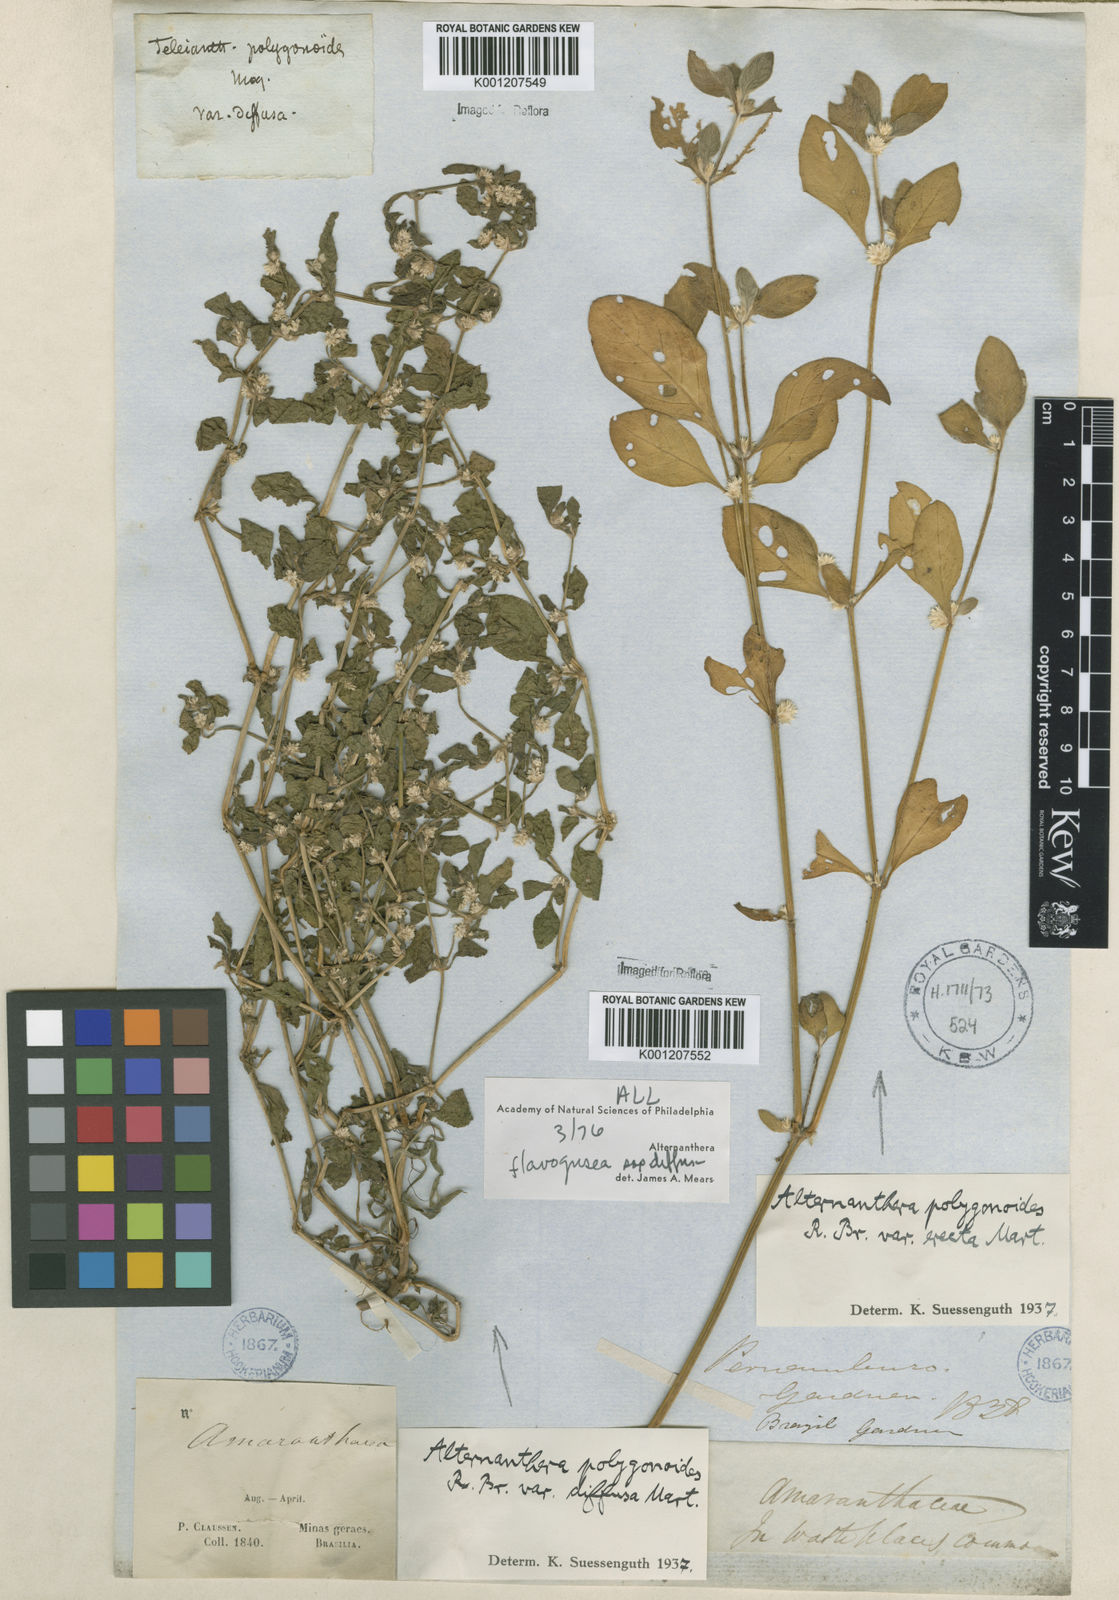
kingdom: Plantae
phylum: Tracheophyta
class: Magnoliopsida
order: Caryophyllales
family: Amaranthaceae
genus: Alternanthera
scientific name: Alternanthera
